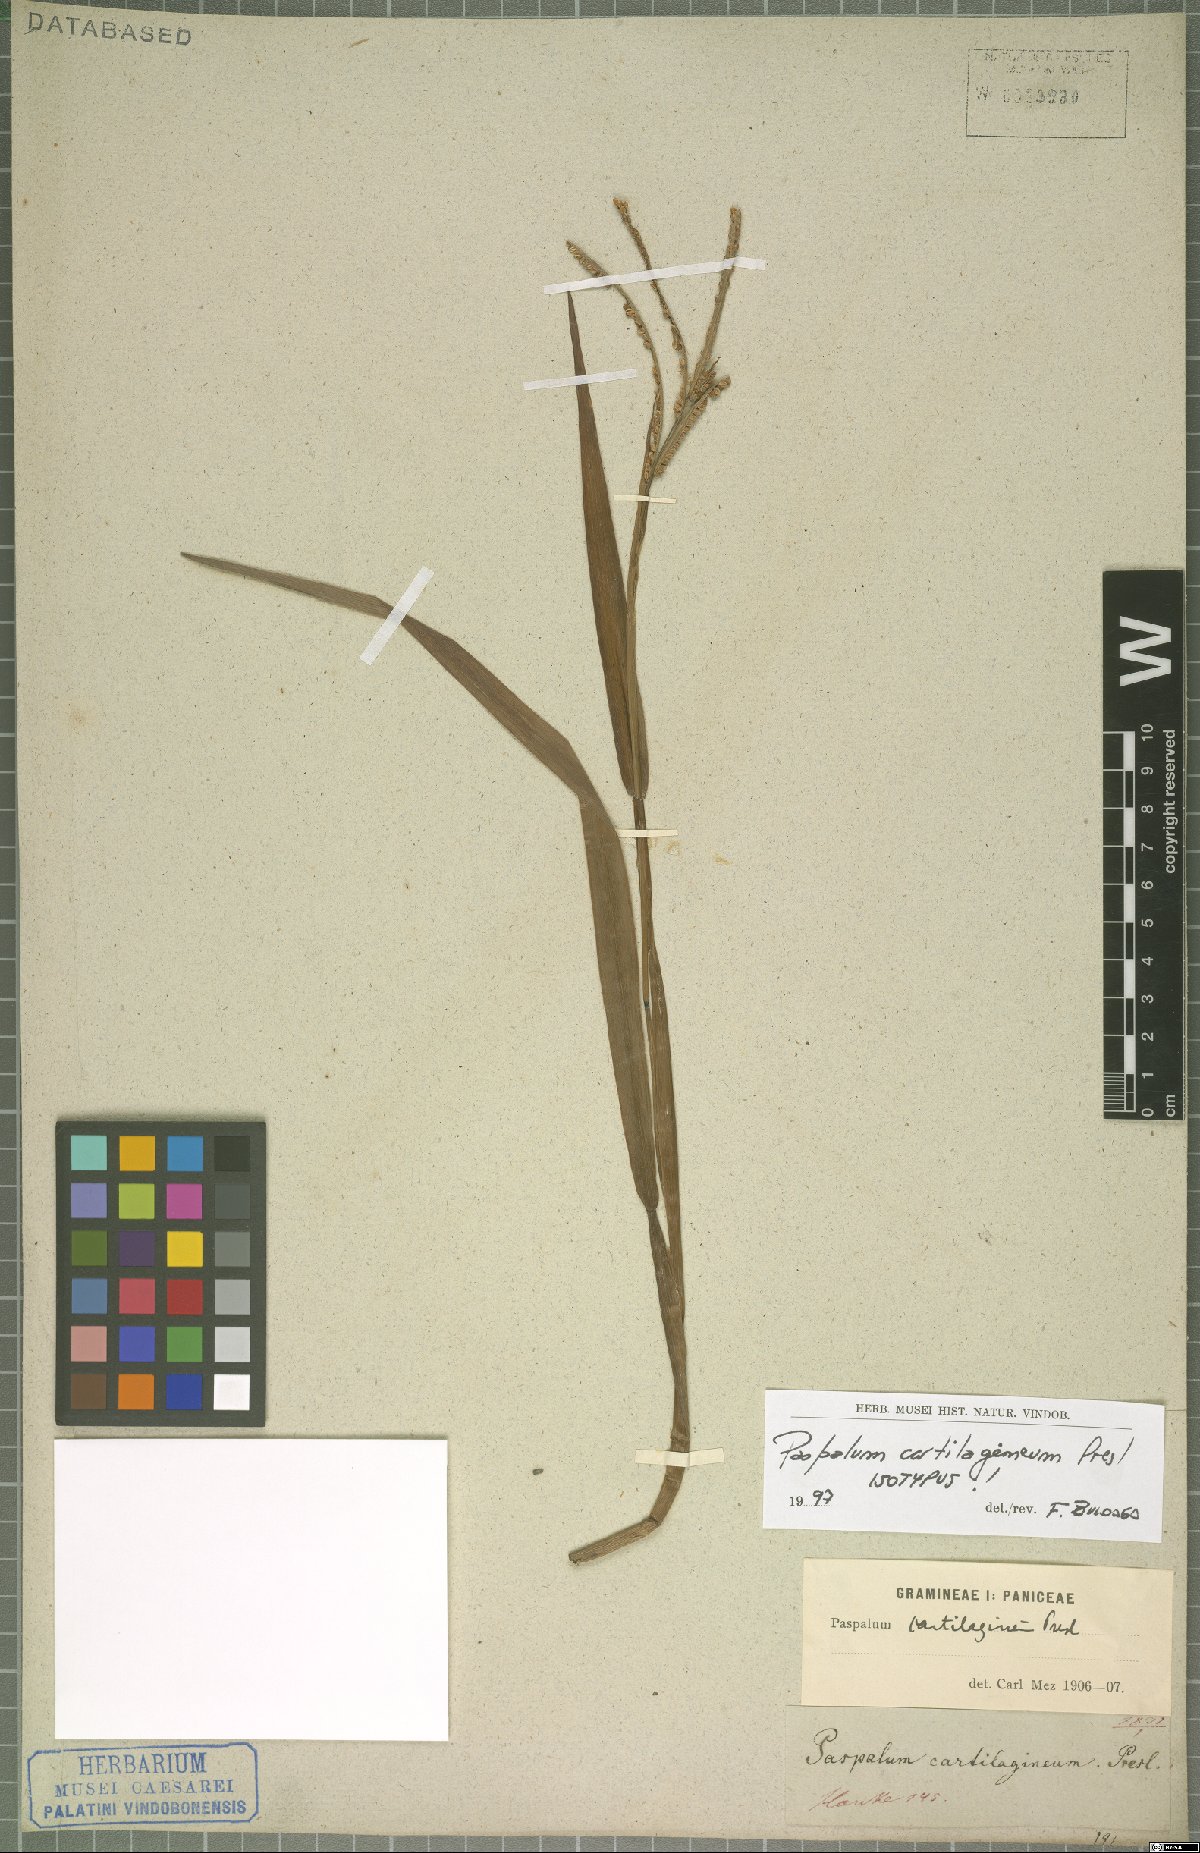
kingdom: Plantae
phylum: Tracheophyta
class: Liliopsida
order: Poales
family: Poaceae
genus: Paspalum
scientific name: Paspalum scrobiculatum
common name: Kodo millet
